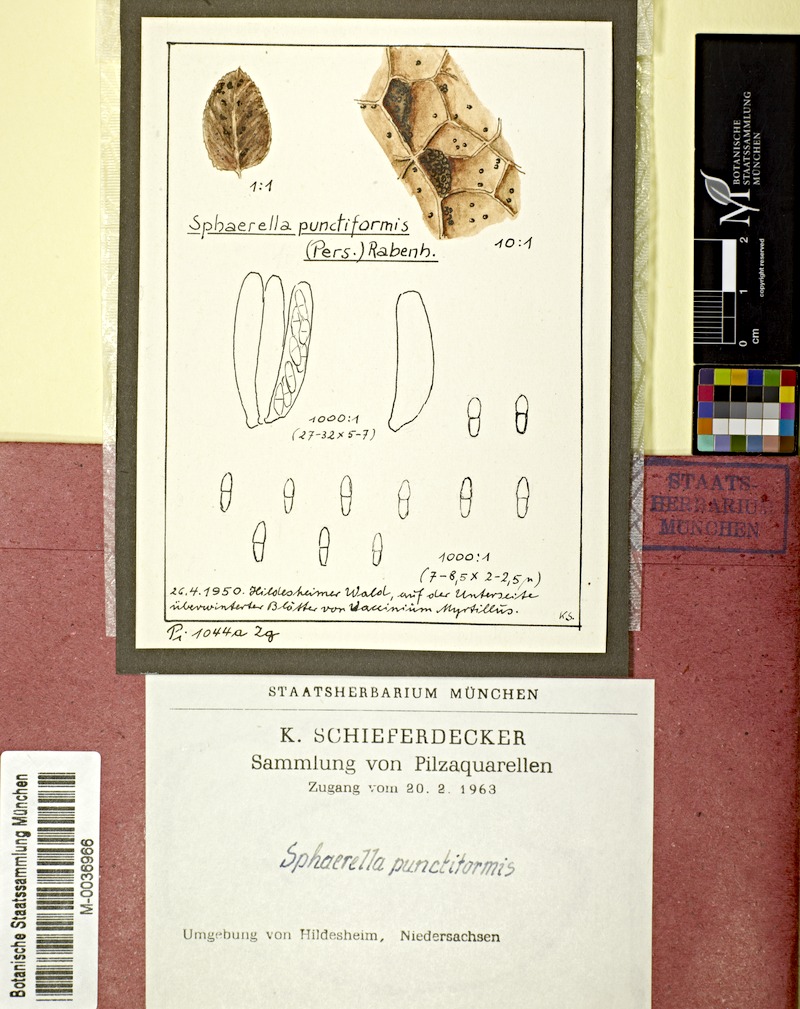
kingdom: Plantae
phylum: Tracheophyta
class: Magnoliopsida
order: Ericales
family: Ericaceae
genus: Vaccinium
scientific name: Vaccinium myrtillus
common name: Bilberry
